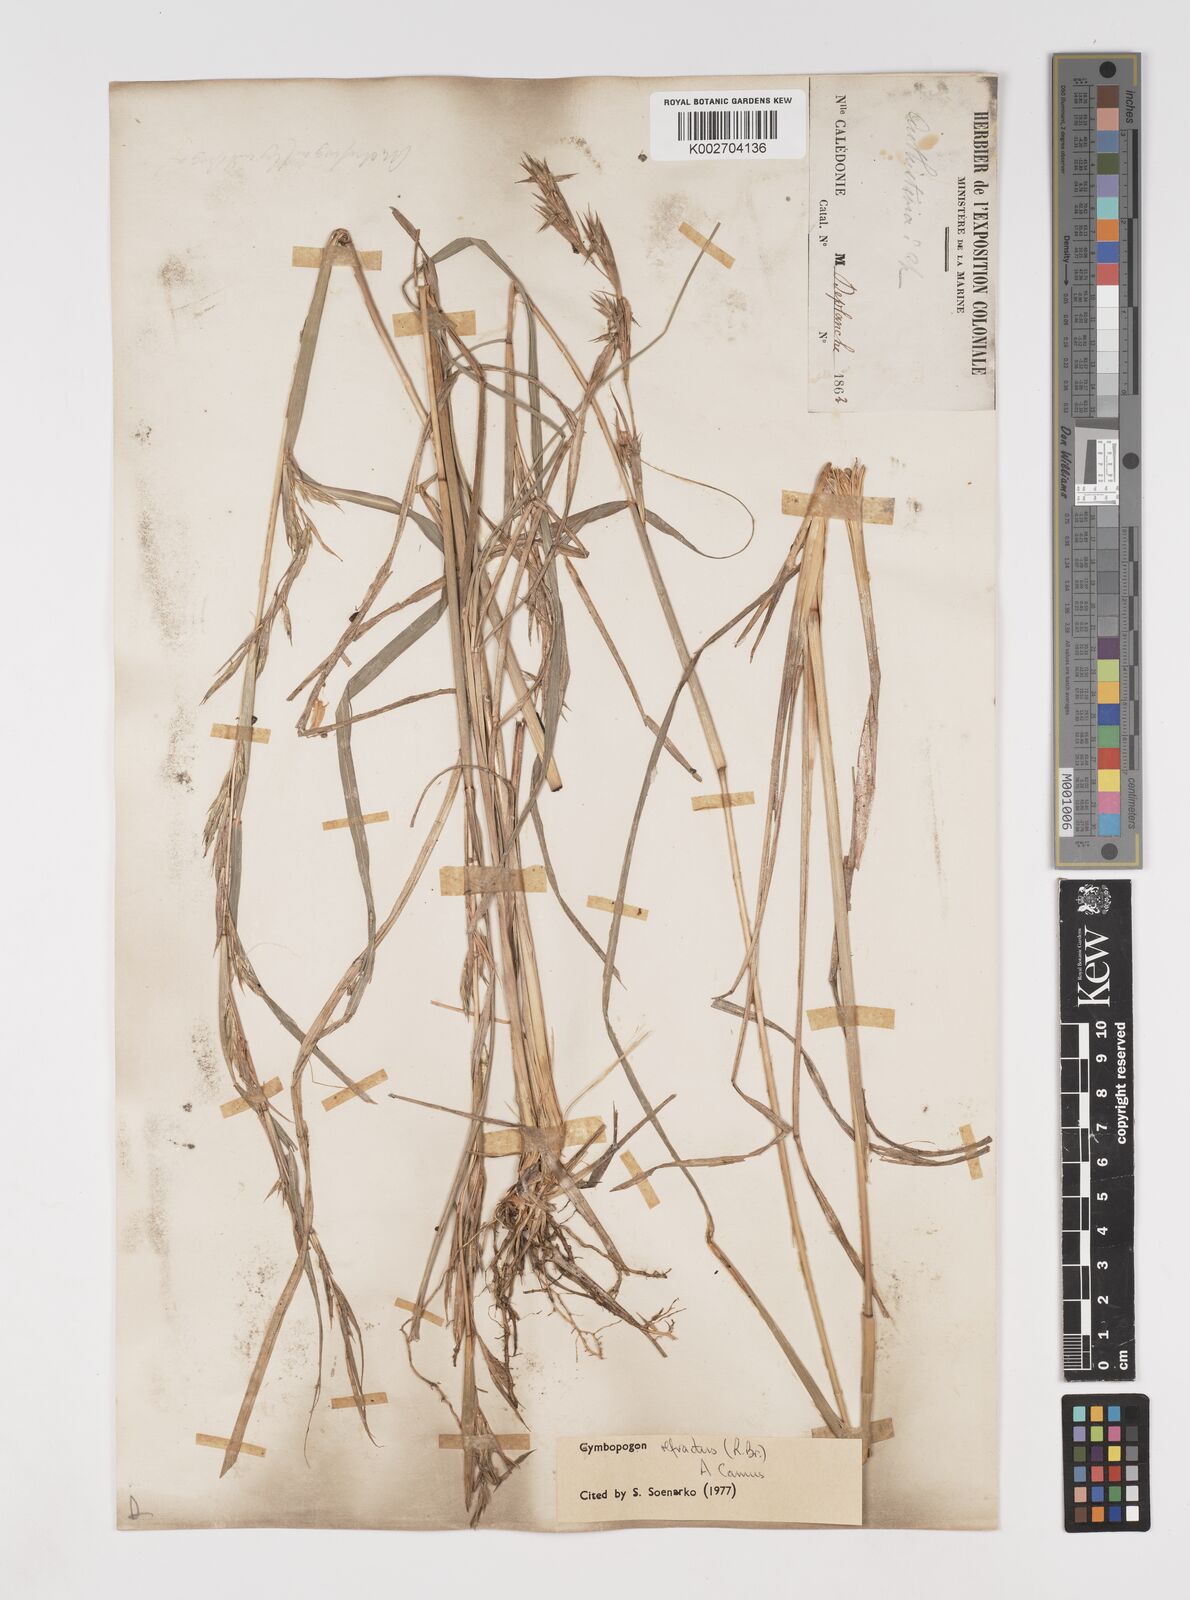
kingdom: Plantae
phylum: Tracheophyta
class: Liliopsida
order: Poales
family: Poaceae
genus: Cymbopogon
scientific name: Cymbopogon refractus
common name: Barbwire grass
